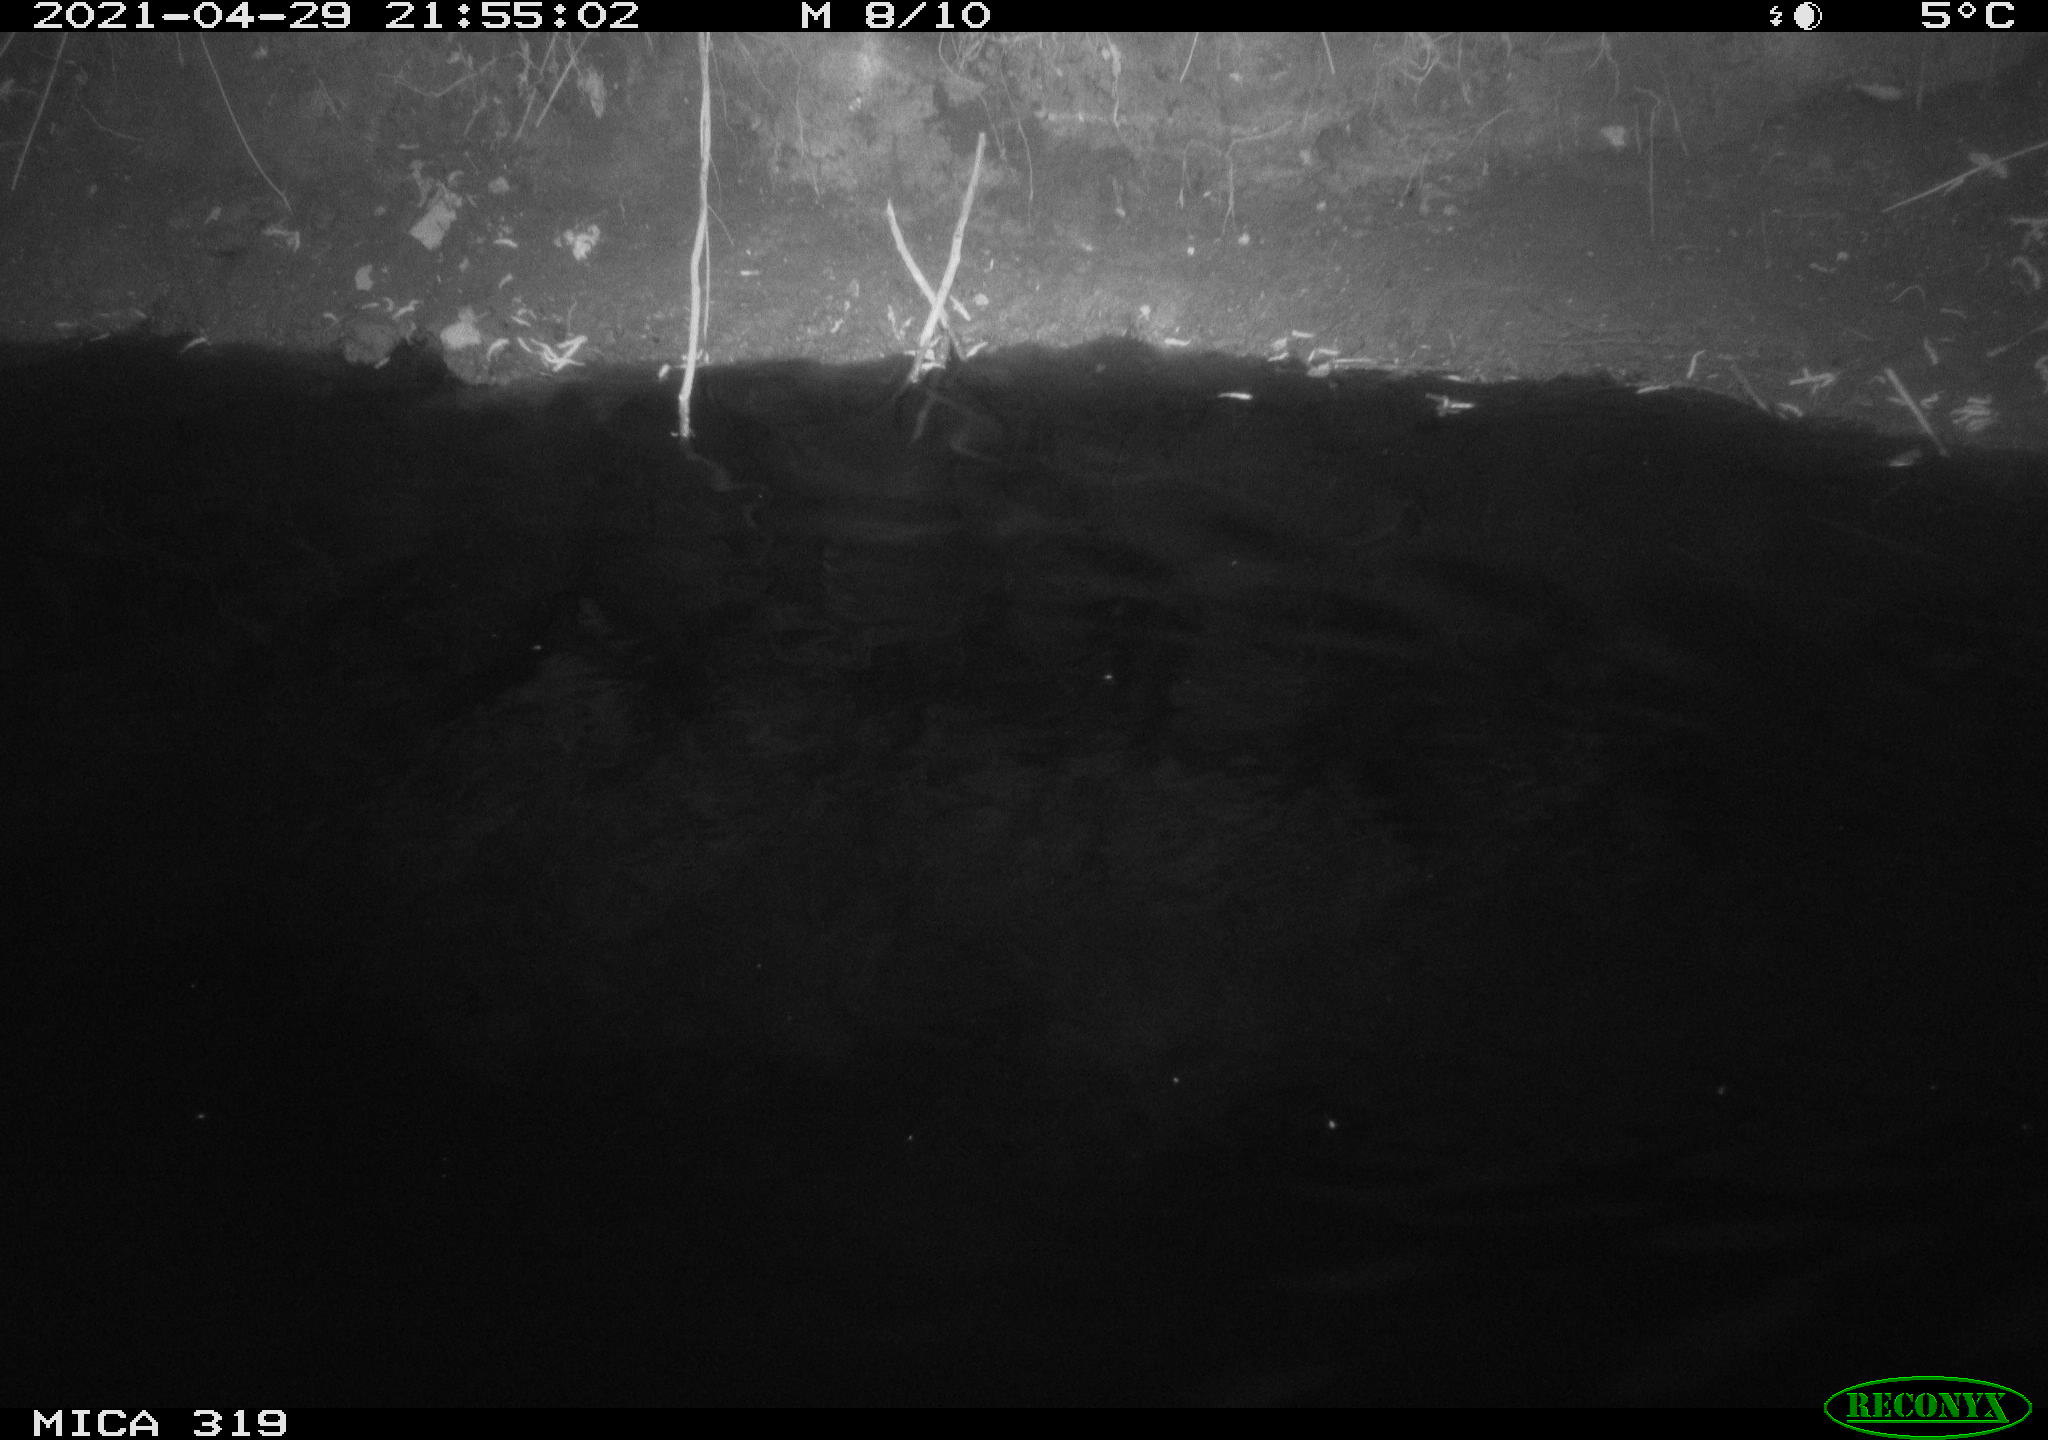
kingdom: Animalia
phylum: Chordata
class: Aves
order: Anseriformes
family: Anatidae
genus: Anas
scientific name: Anas platyrhynchos
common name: Mallard
